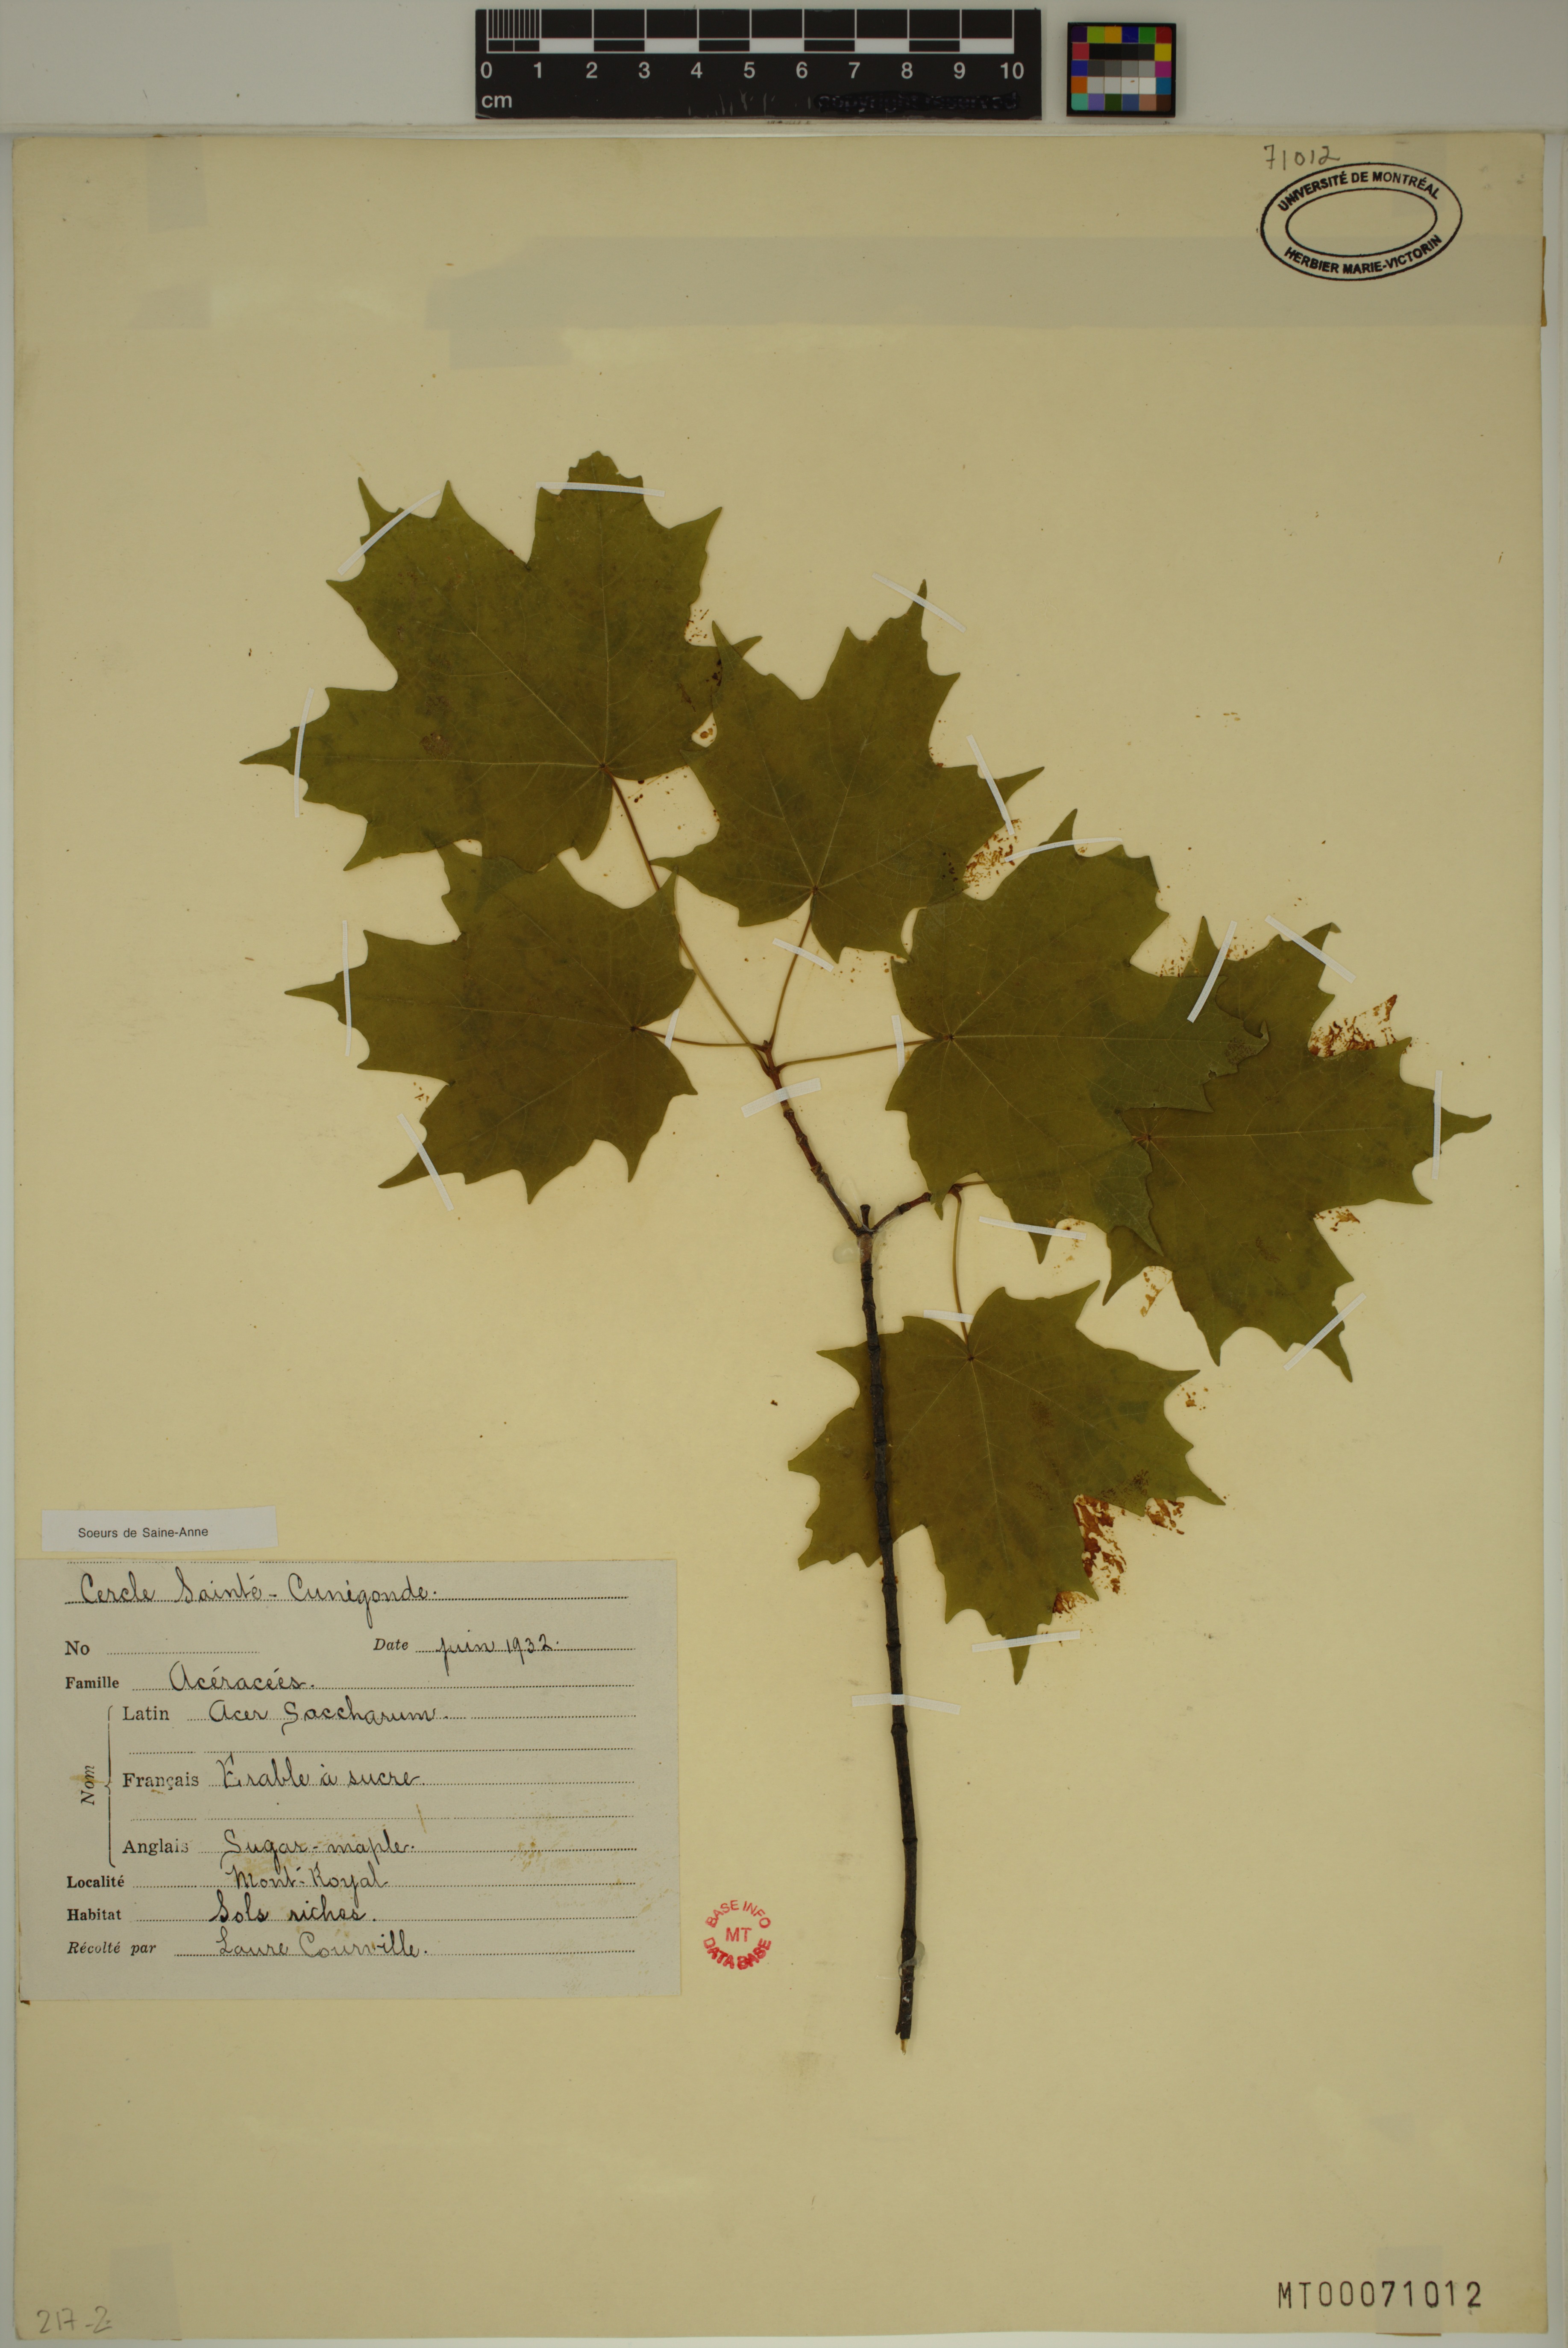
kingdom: Plantae
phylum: Tracheophyta
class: Magnoliopsida
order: Sapindales
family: Sapindaceae
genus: Acer
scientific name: Acer saccharum
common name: Sugar maple
